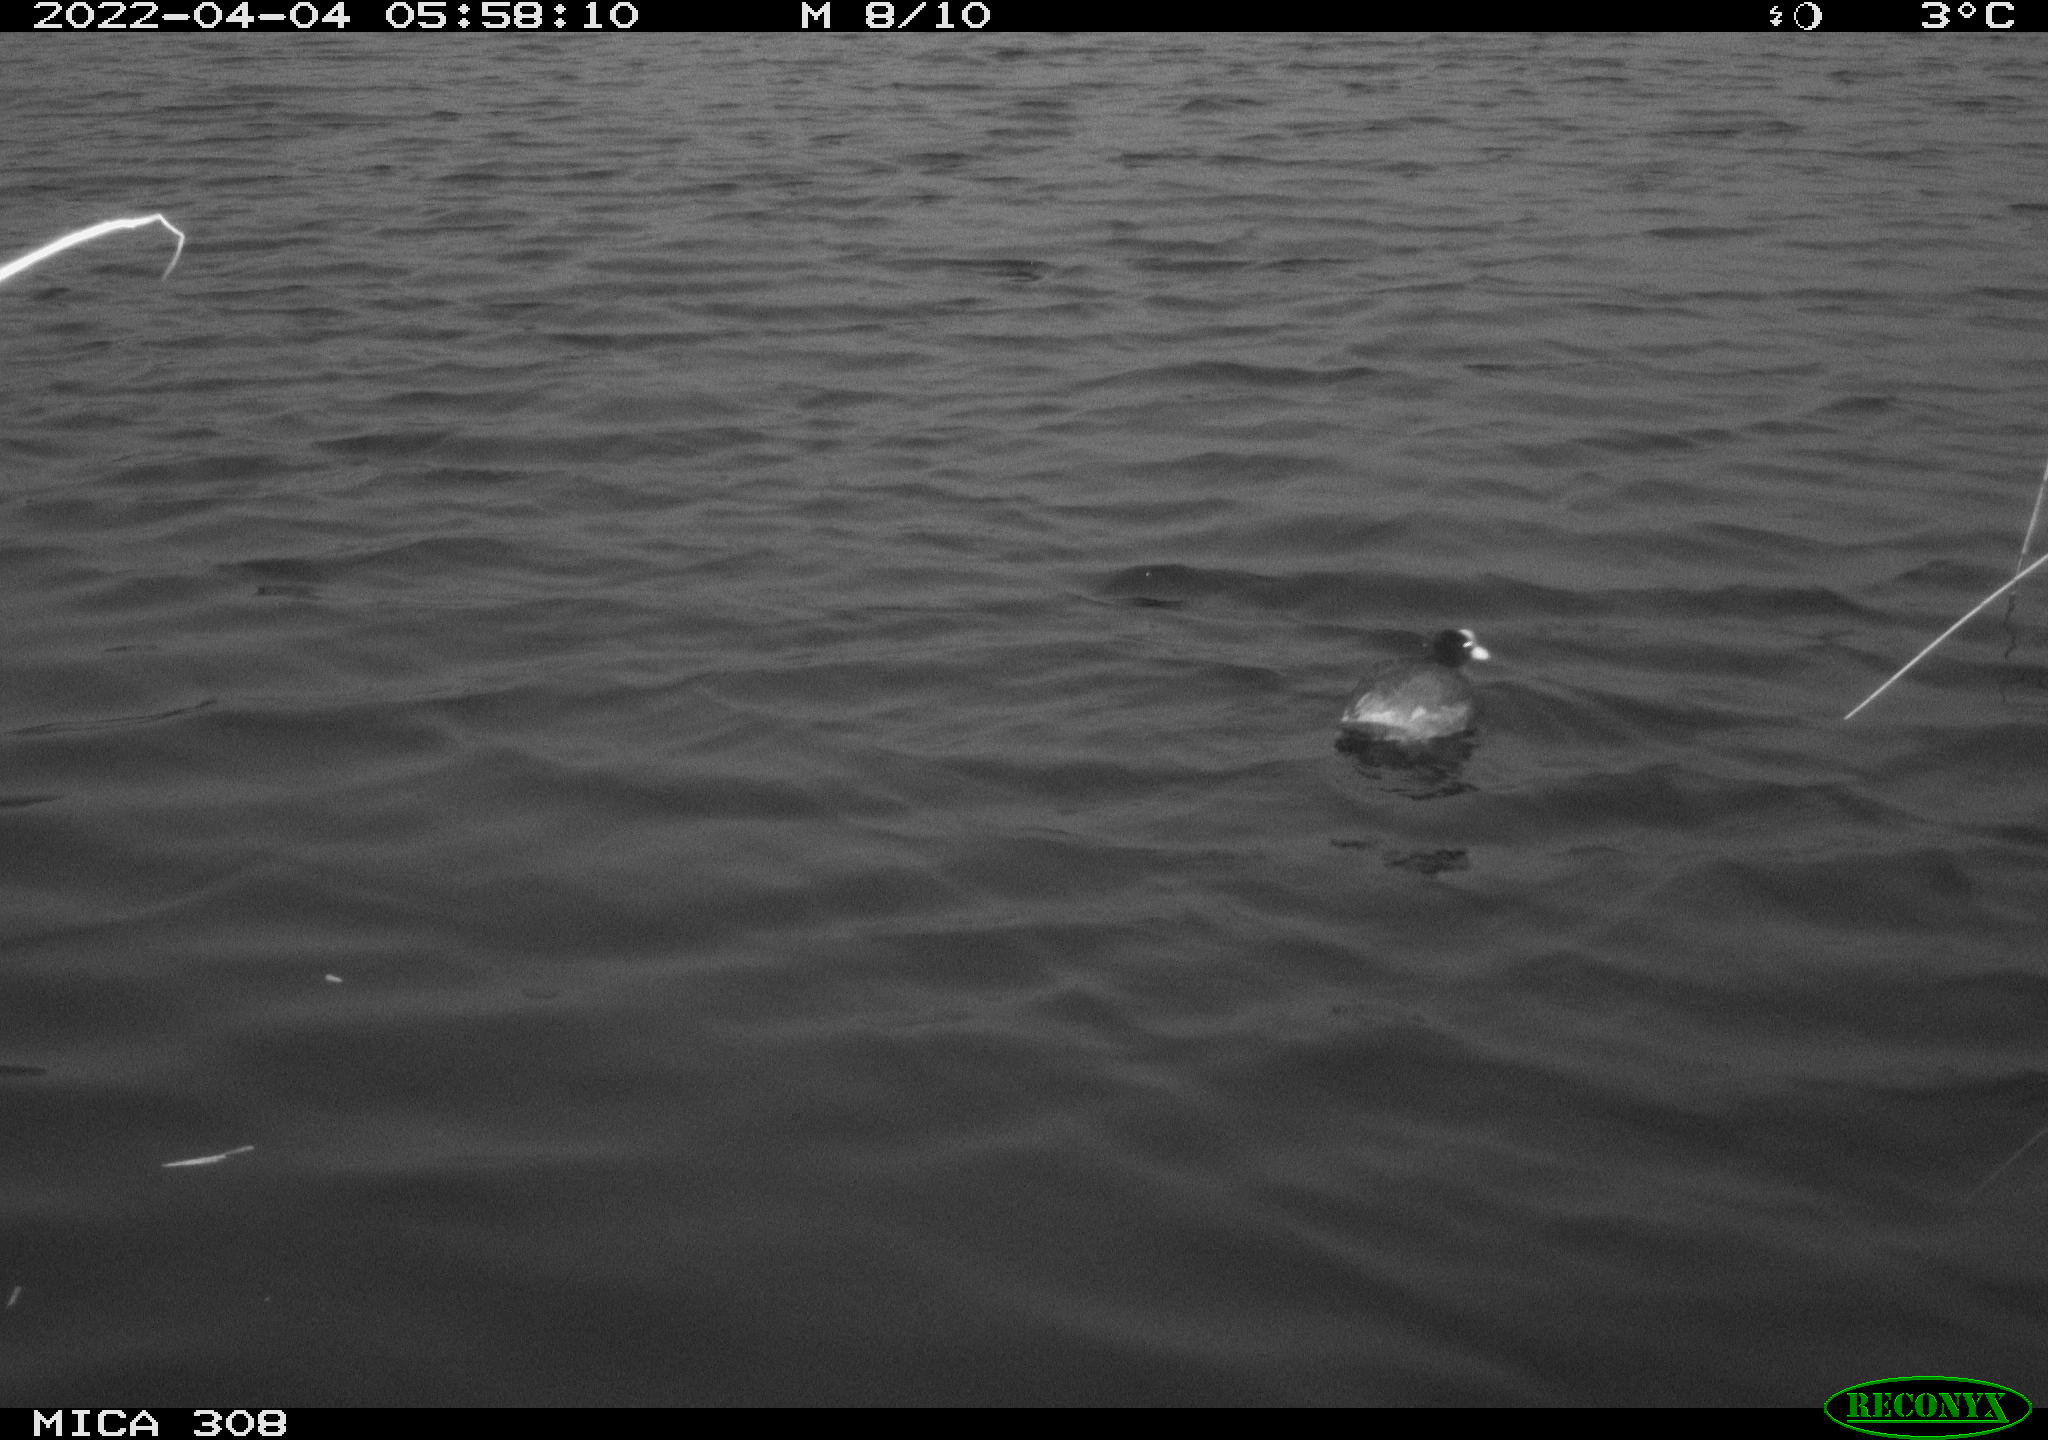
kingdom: Animalia
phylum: Chordata
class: Aves
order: Gruiformes
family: Rallidae
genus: Fulica
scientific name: Fulica atra
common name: Eurasian coot
